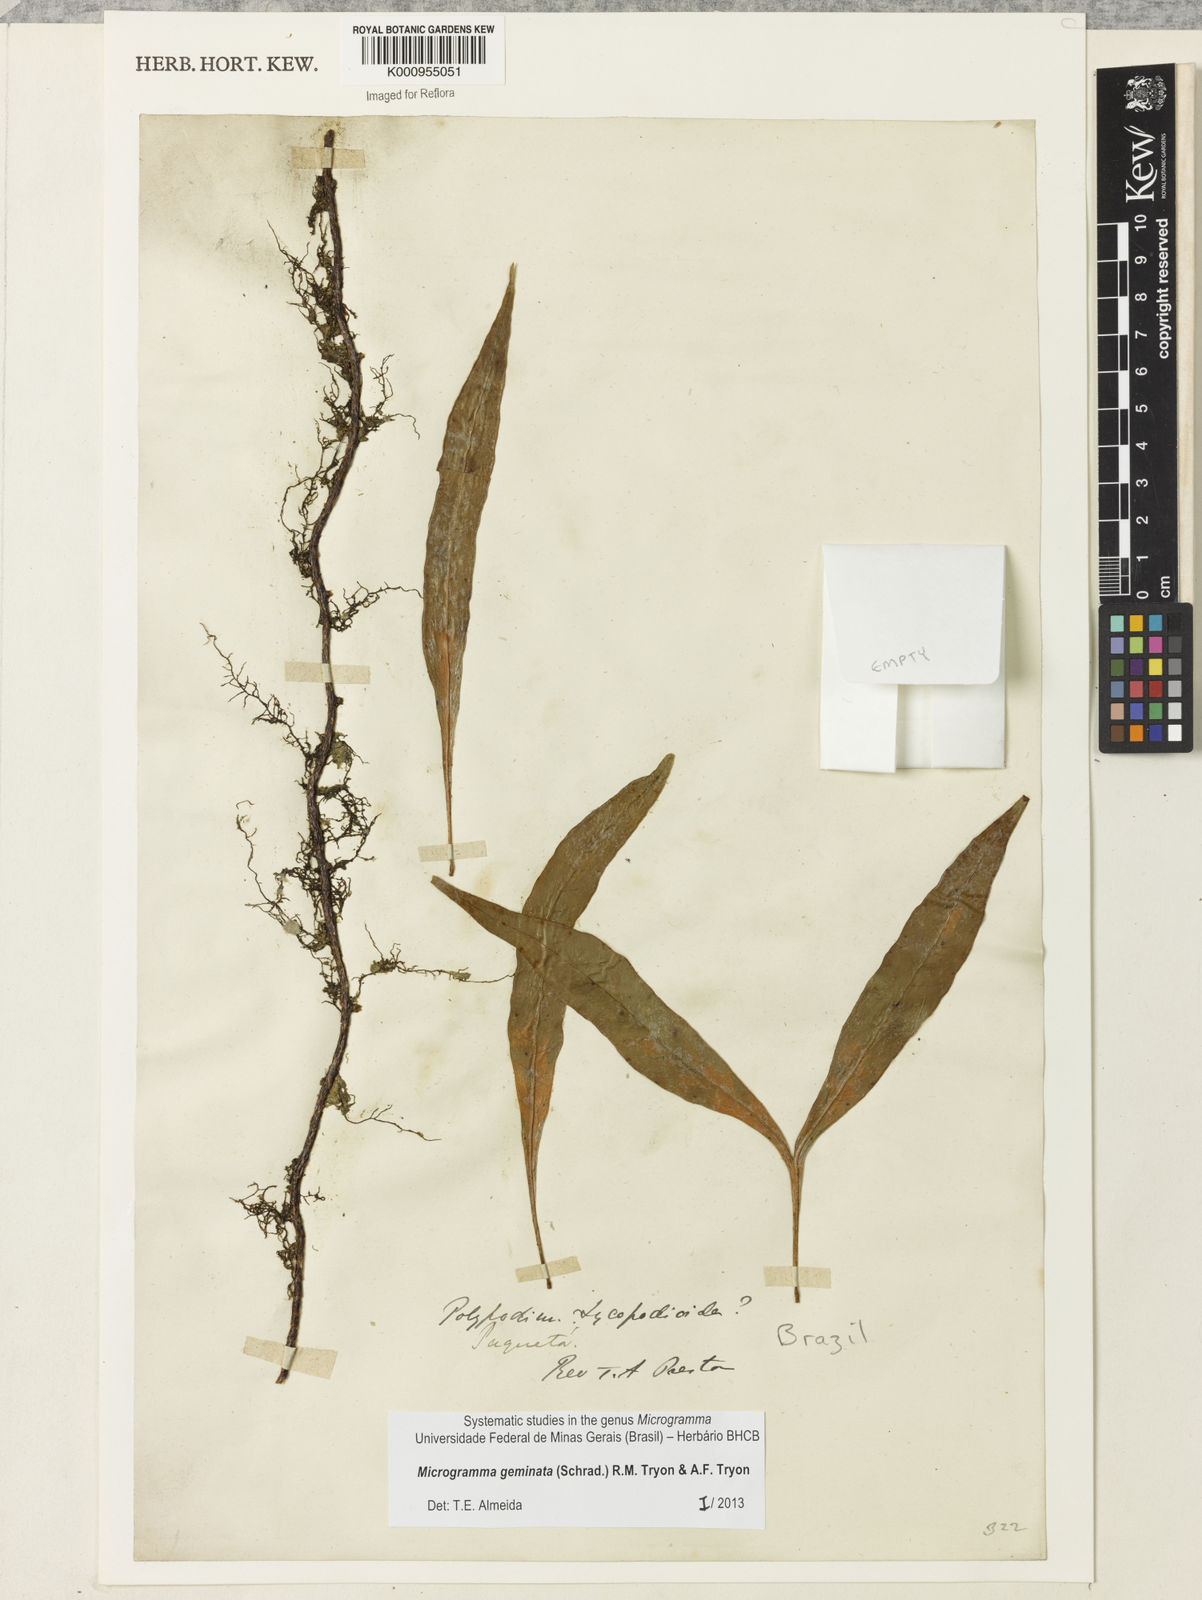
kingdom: Plantae
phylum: Tracheophyta
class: Polypodiopsida
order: Polypodiales
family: Polypodiaceae
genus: Microgramma
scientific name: Microgramma geminata
